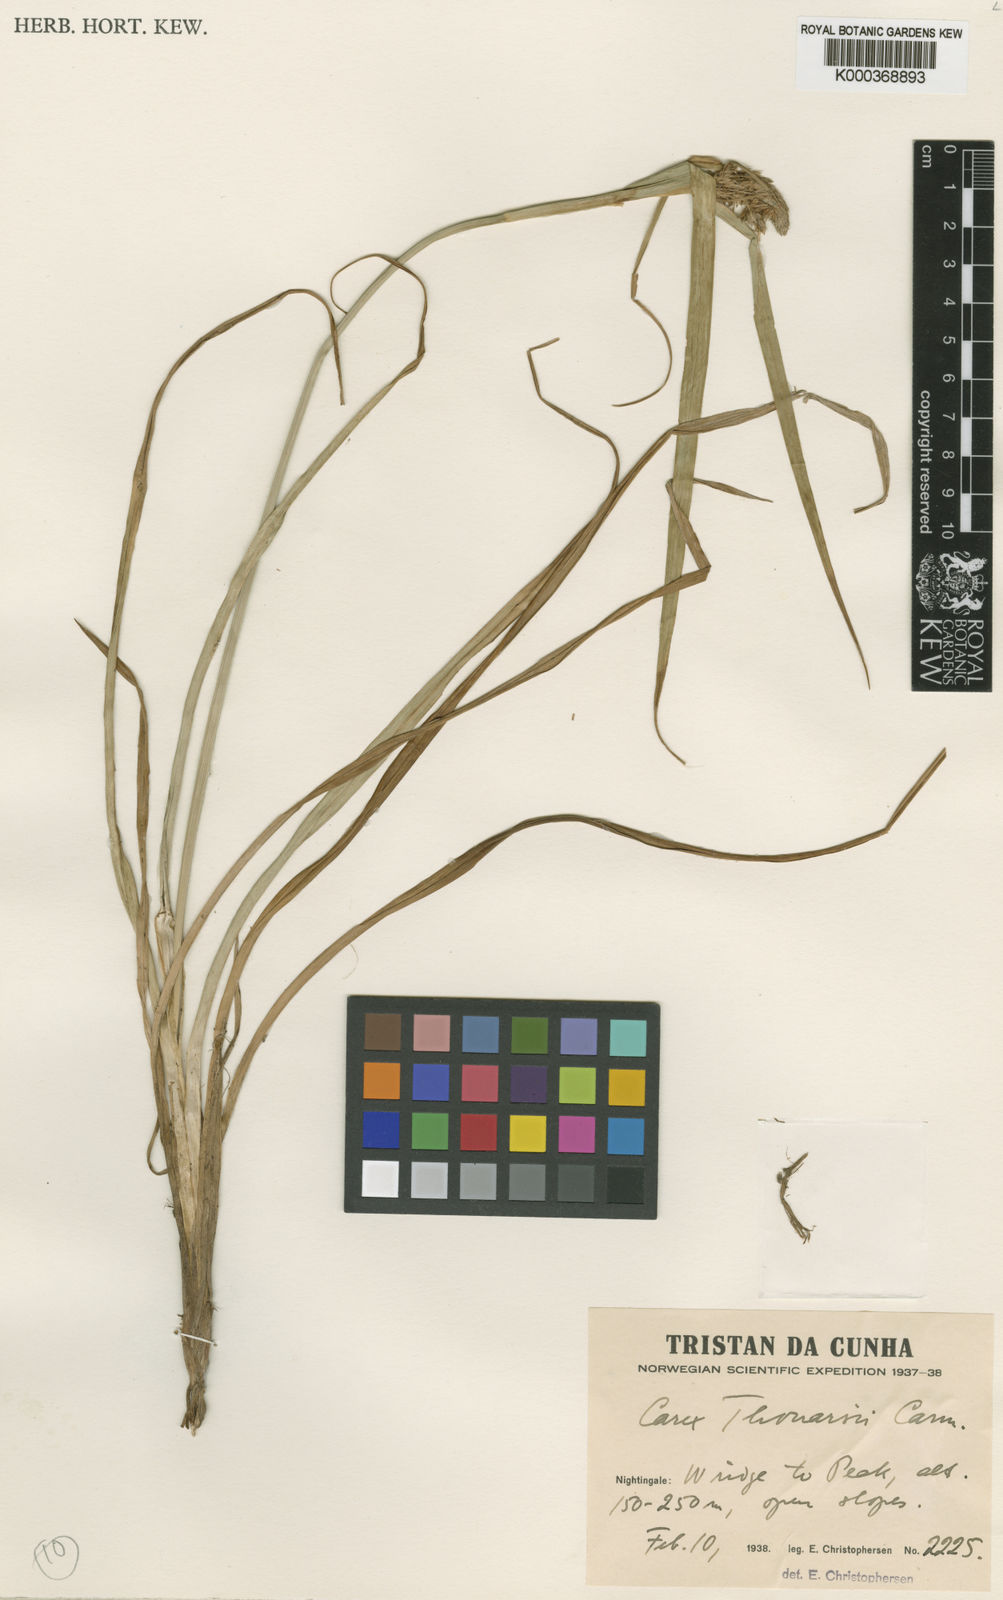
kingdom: Plantae
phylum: Tracheophyta
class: Liliopsida
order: Poales
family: Cyperaceae
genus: Carex
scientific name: Carex thouarsii
